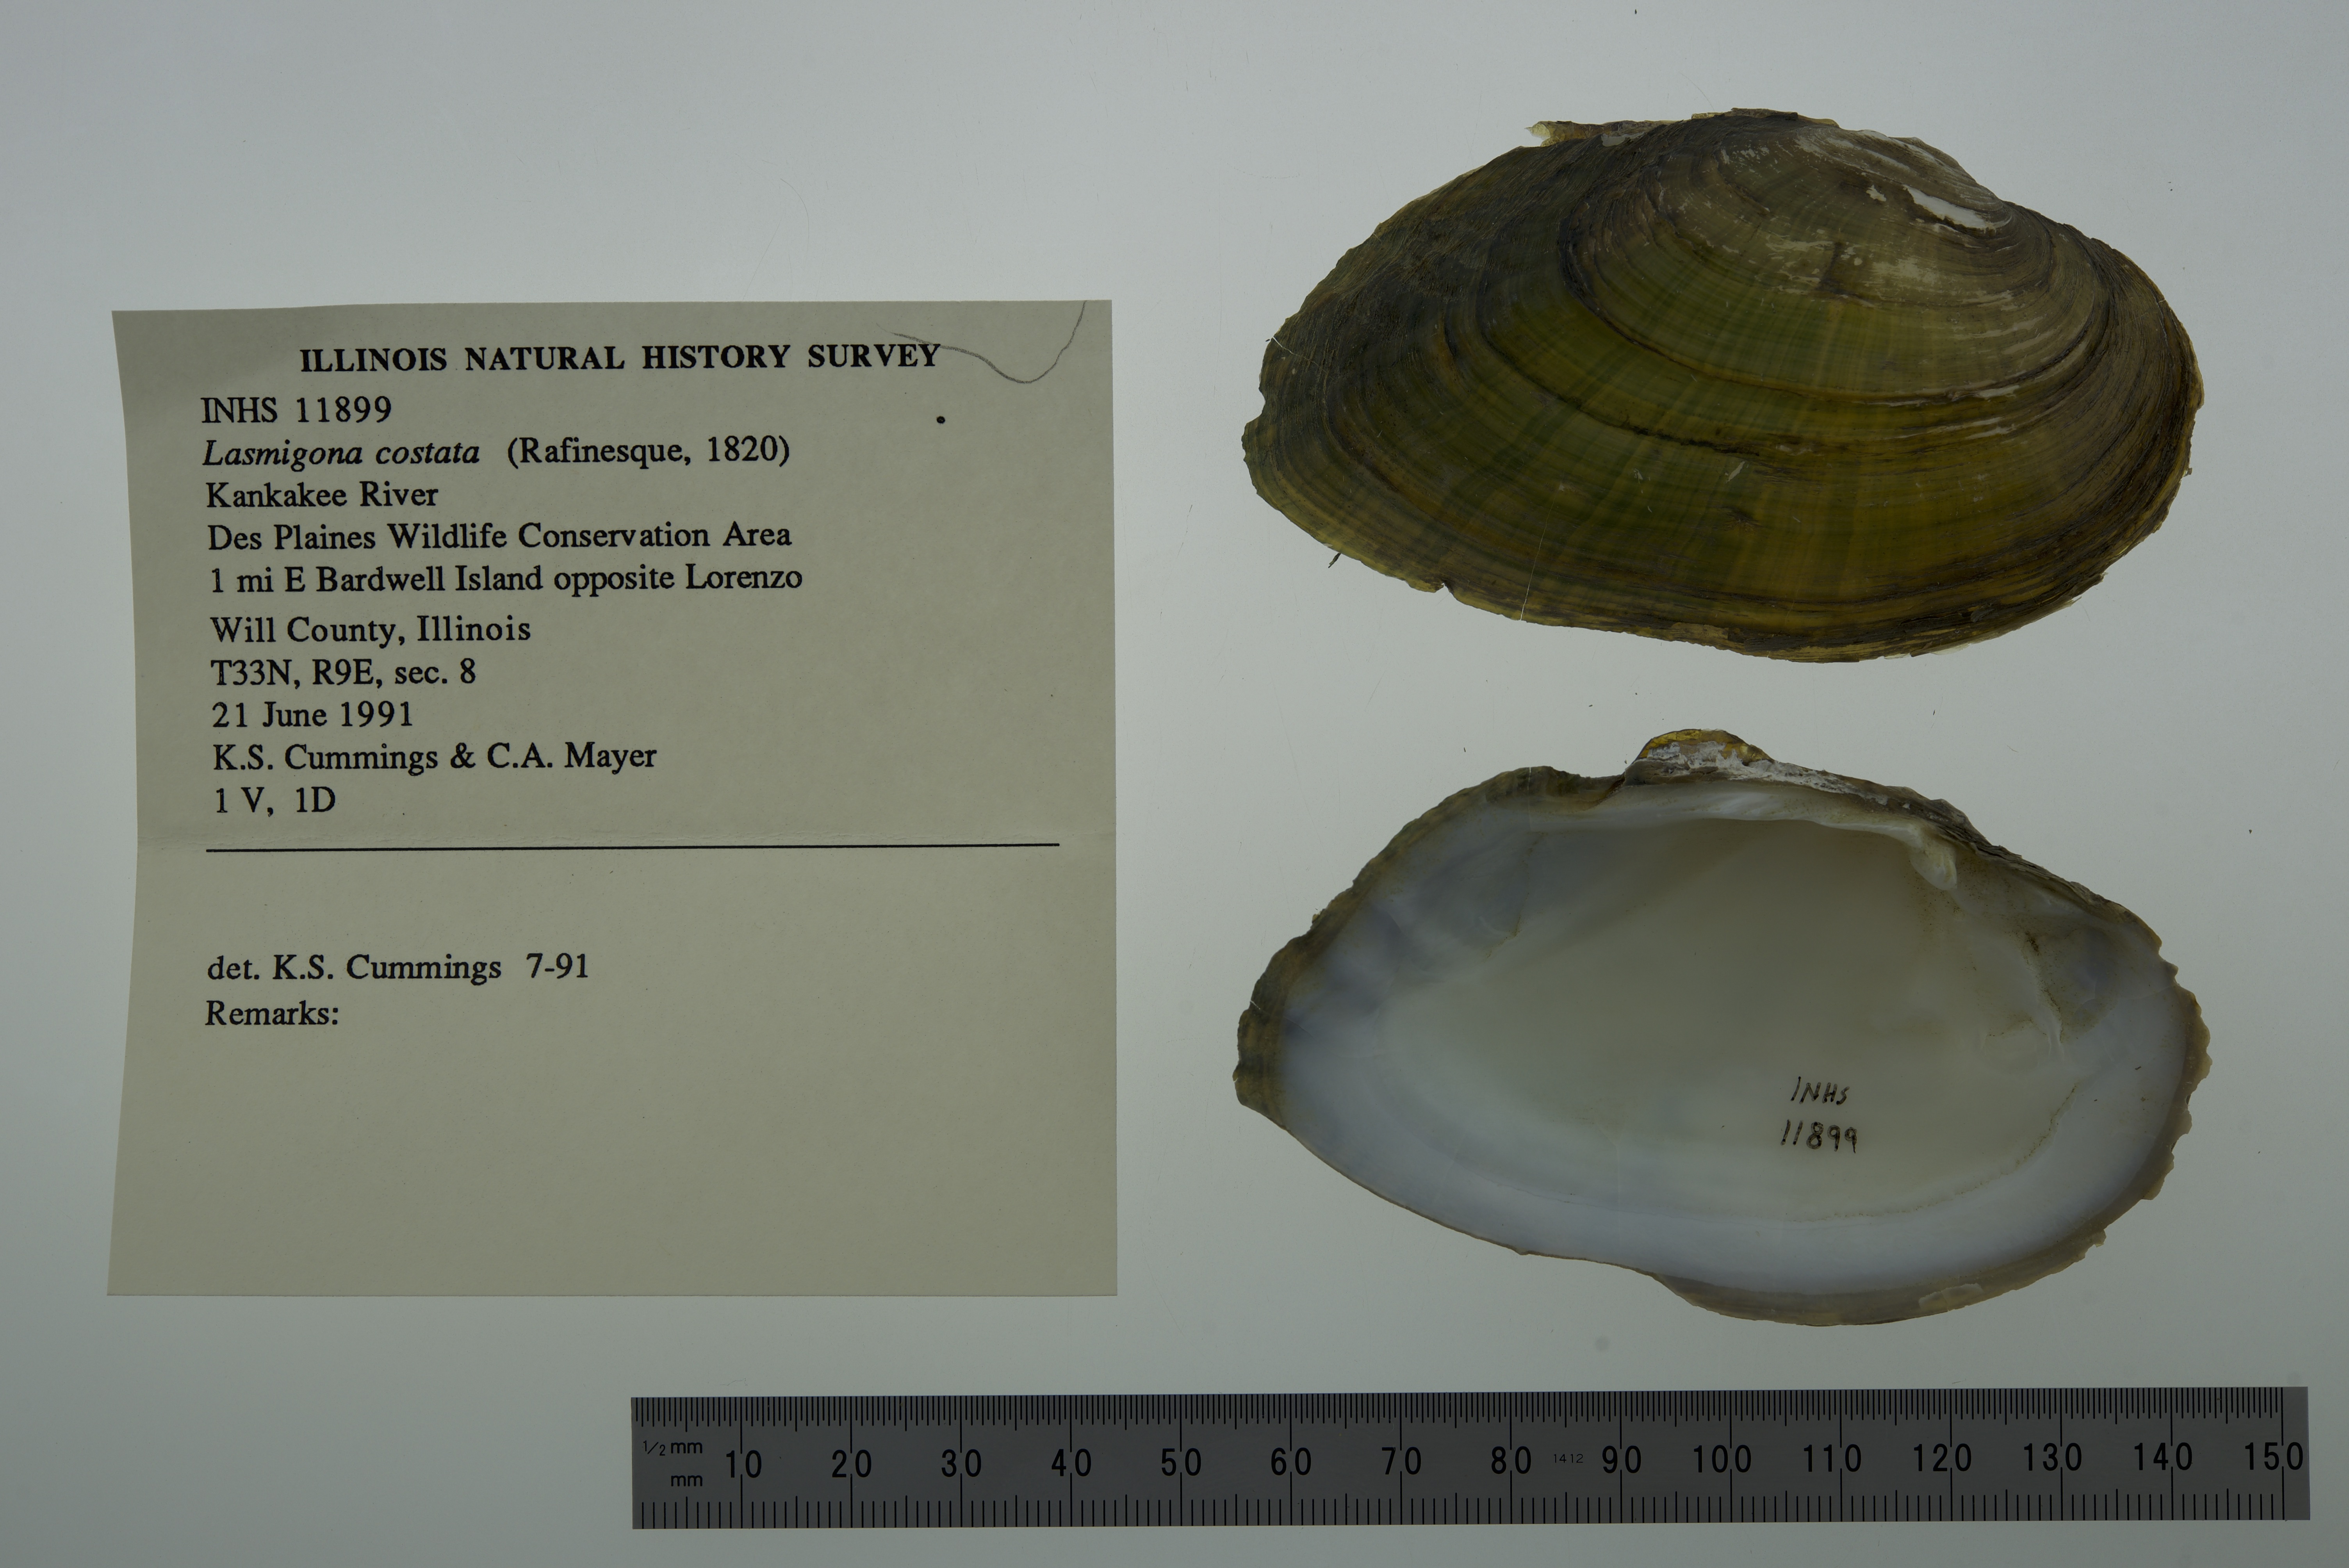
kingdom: Animalia
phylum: Mollusca
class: Bivalvia
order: Unionida
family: Unionidae
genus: Lasmigona
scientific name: Lasmigona costata
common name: Flutedshell
